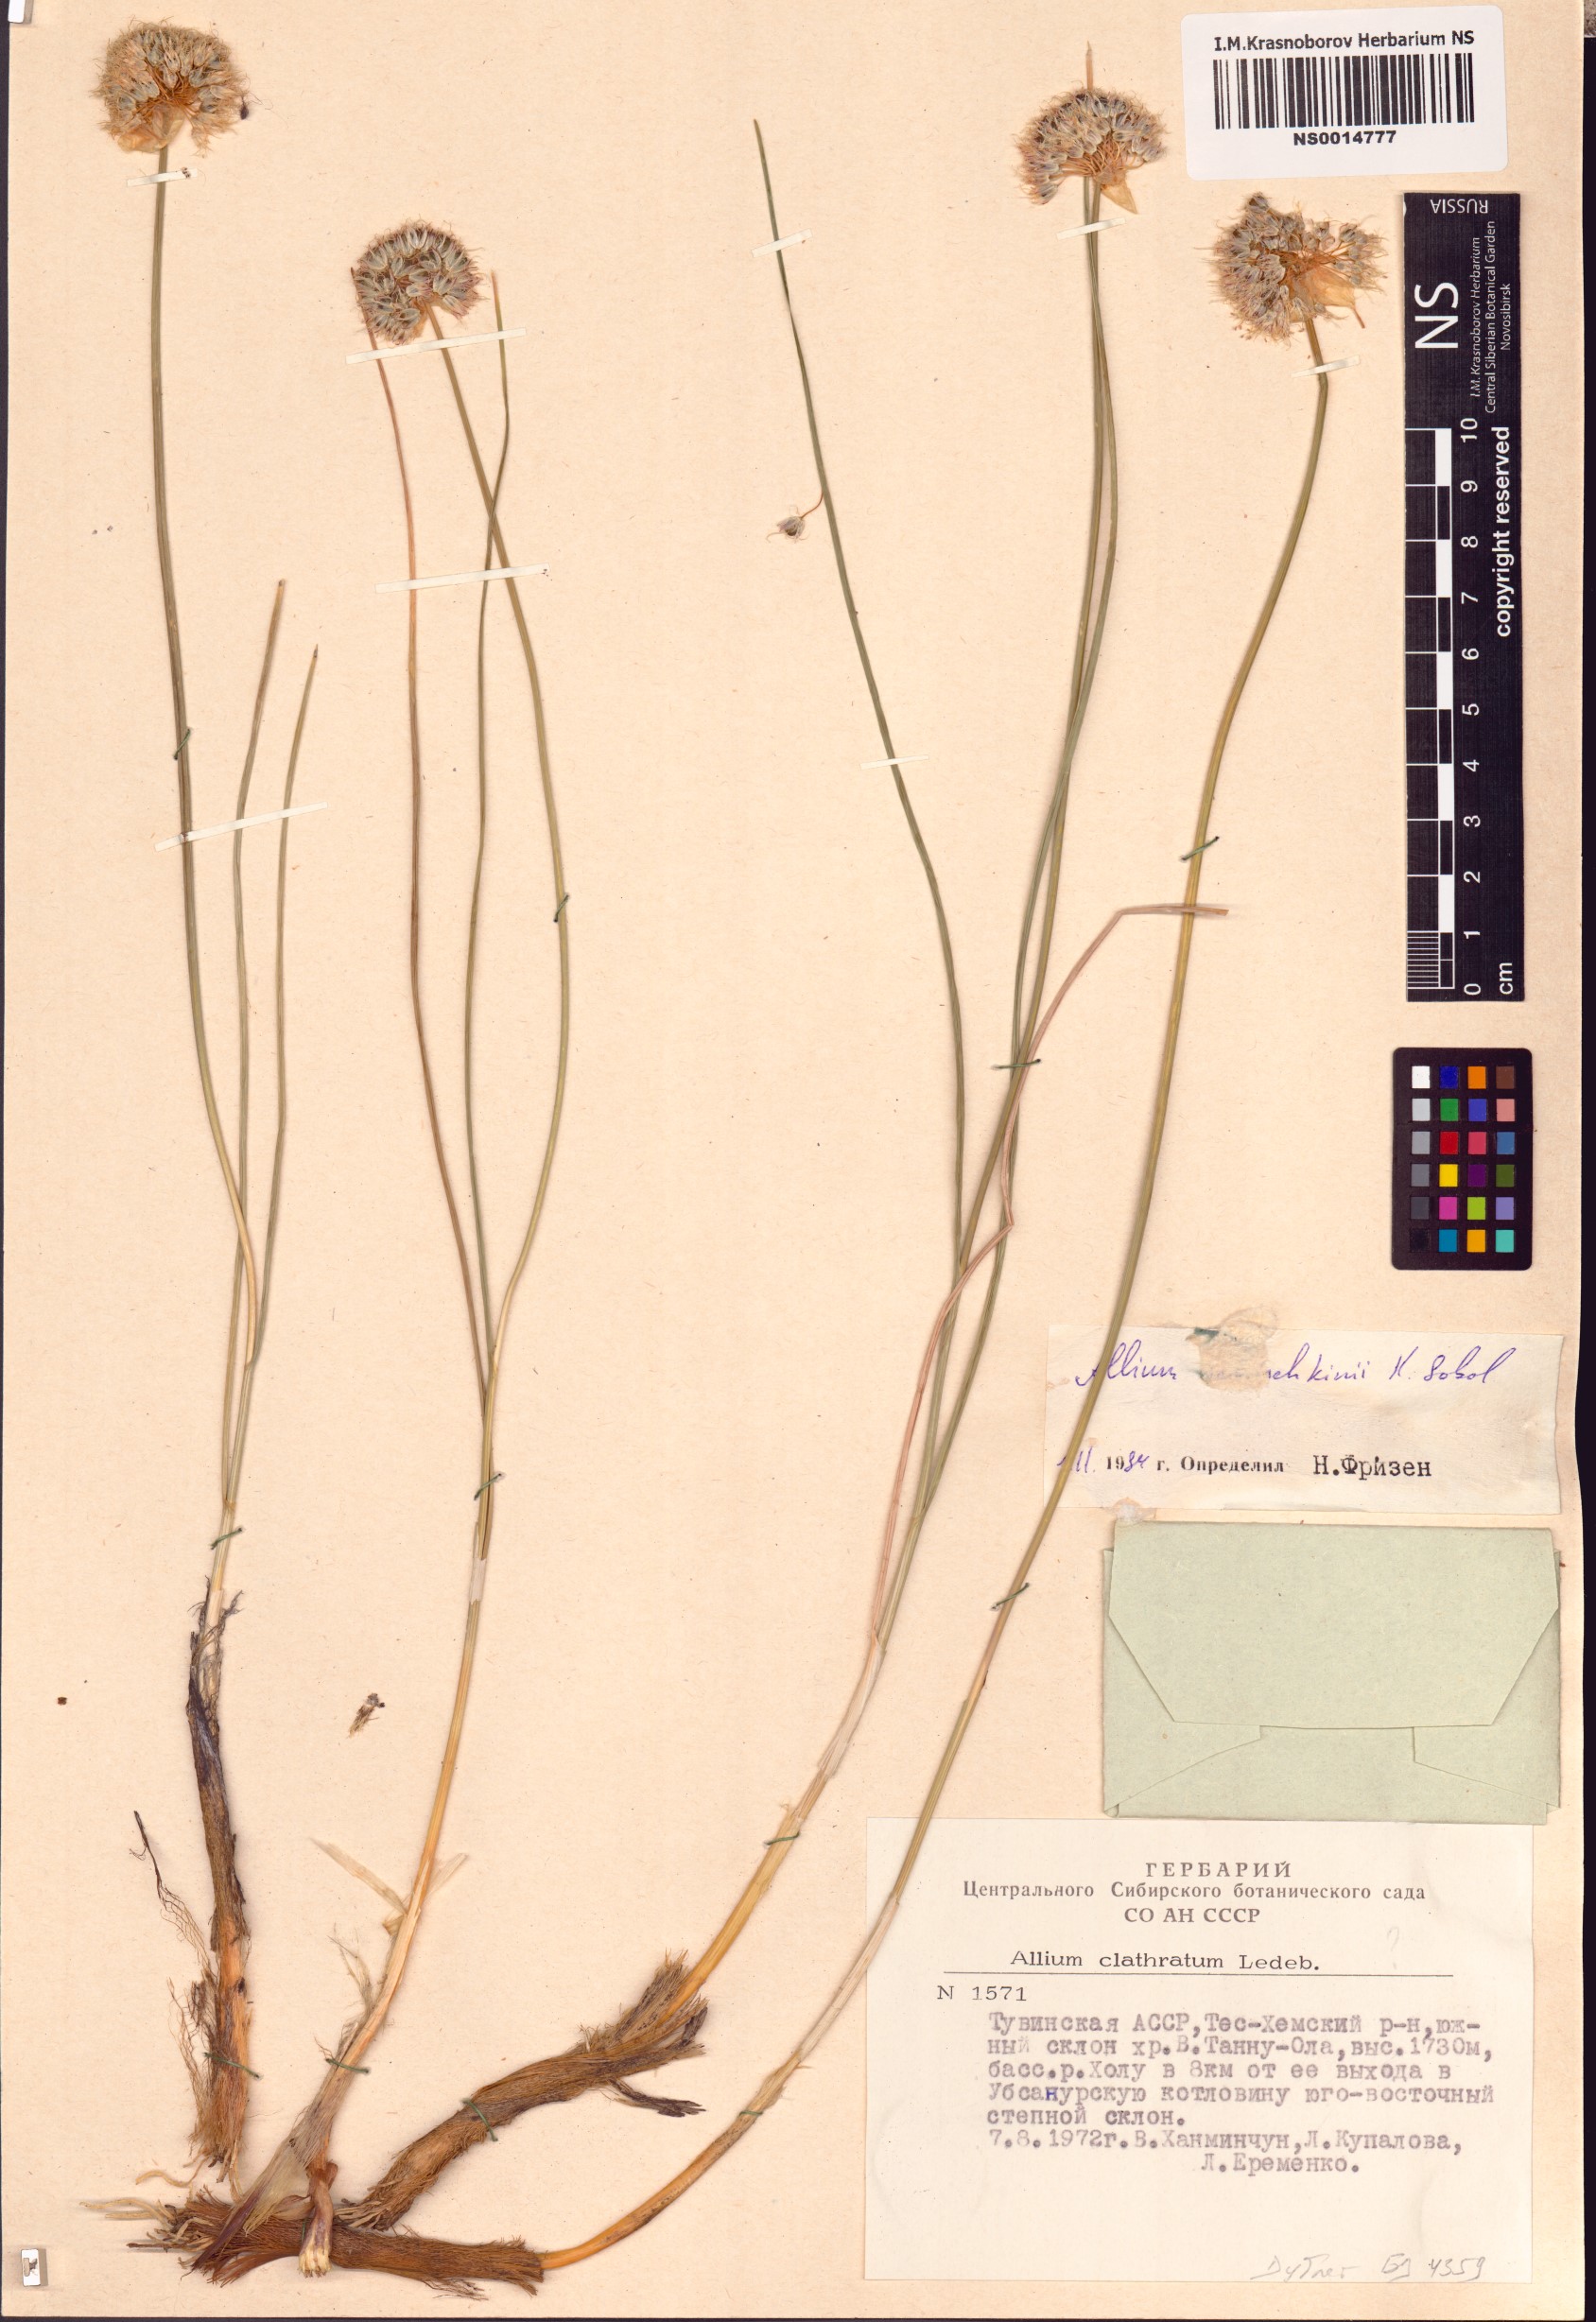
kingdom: Plantae
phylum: Tracheophyta
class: Liliopsida
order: Asparagales
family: Amaryllidaceae
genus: Allium
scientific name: Allium schischkinii
